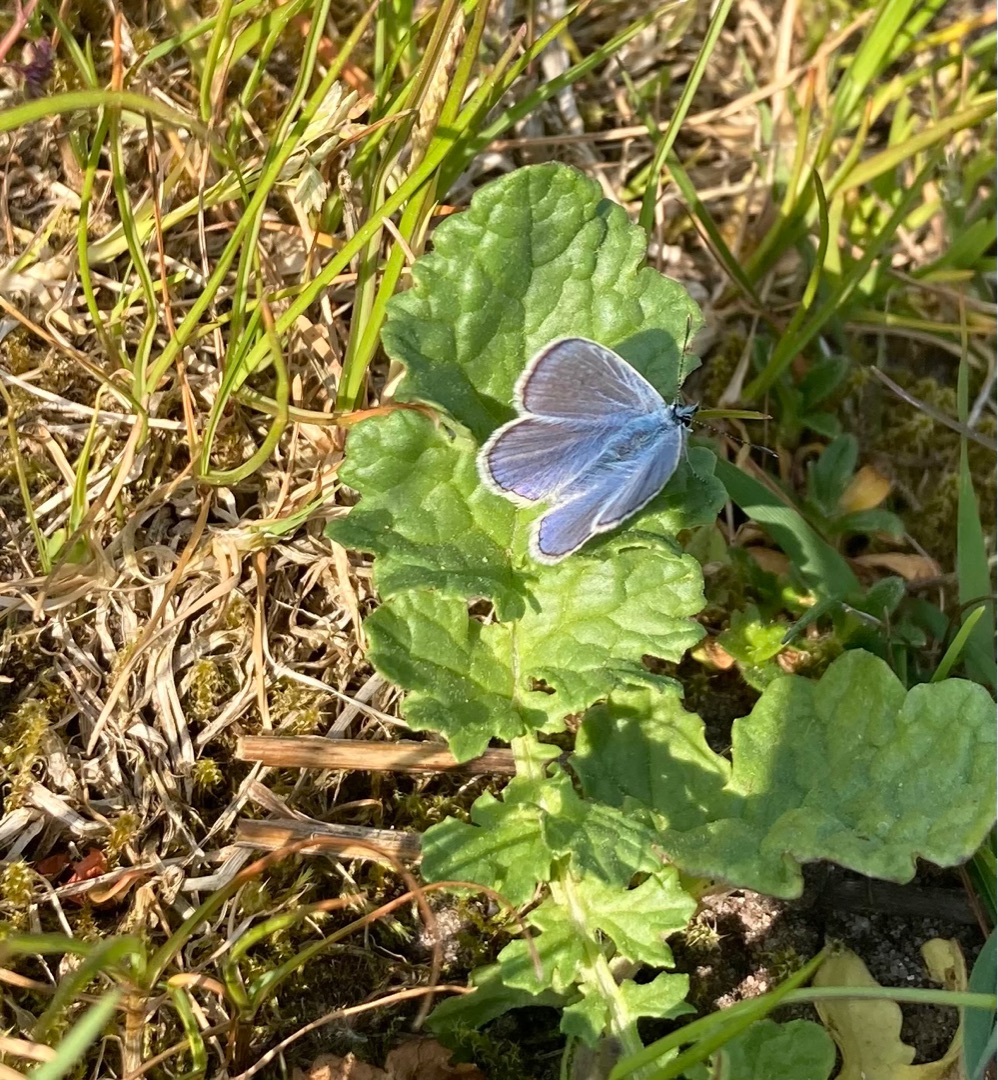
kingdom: Animalia
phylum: Arthropoda
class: Insecta
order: Lepidoptera
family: Lycaenidae
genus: Polyommatus
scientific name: Polyommatus icarus
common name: Almindelig blåfugl
